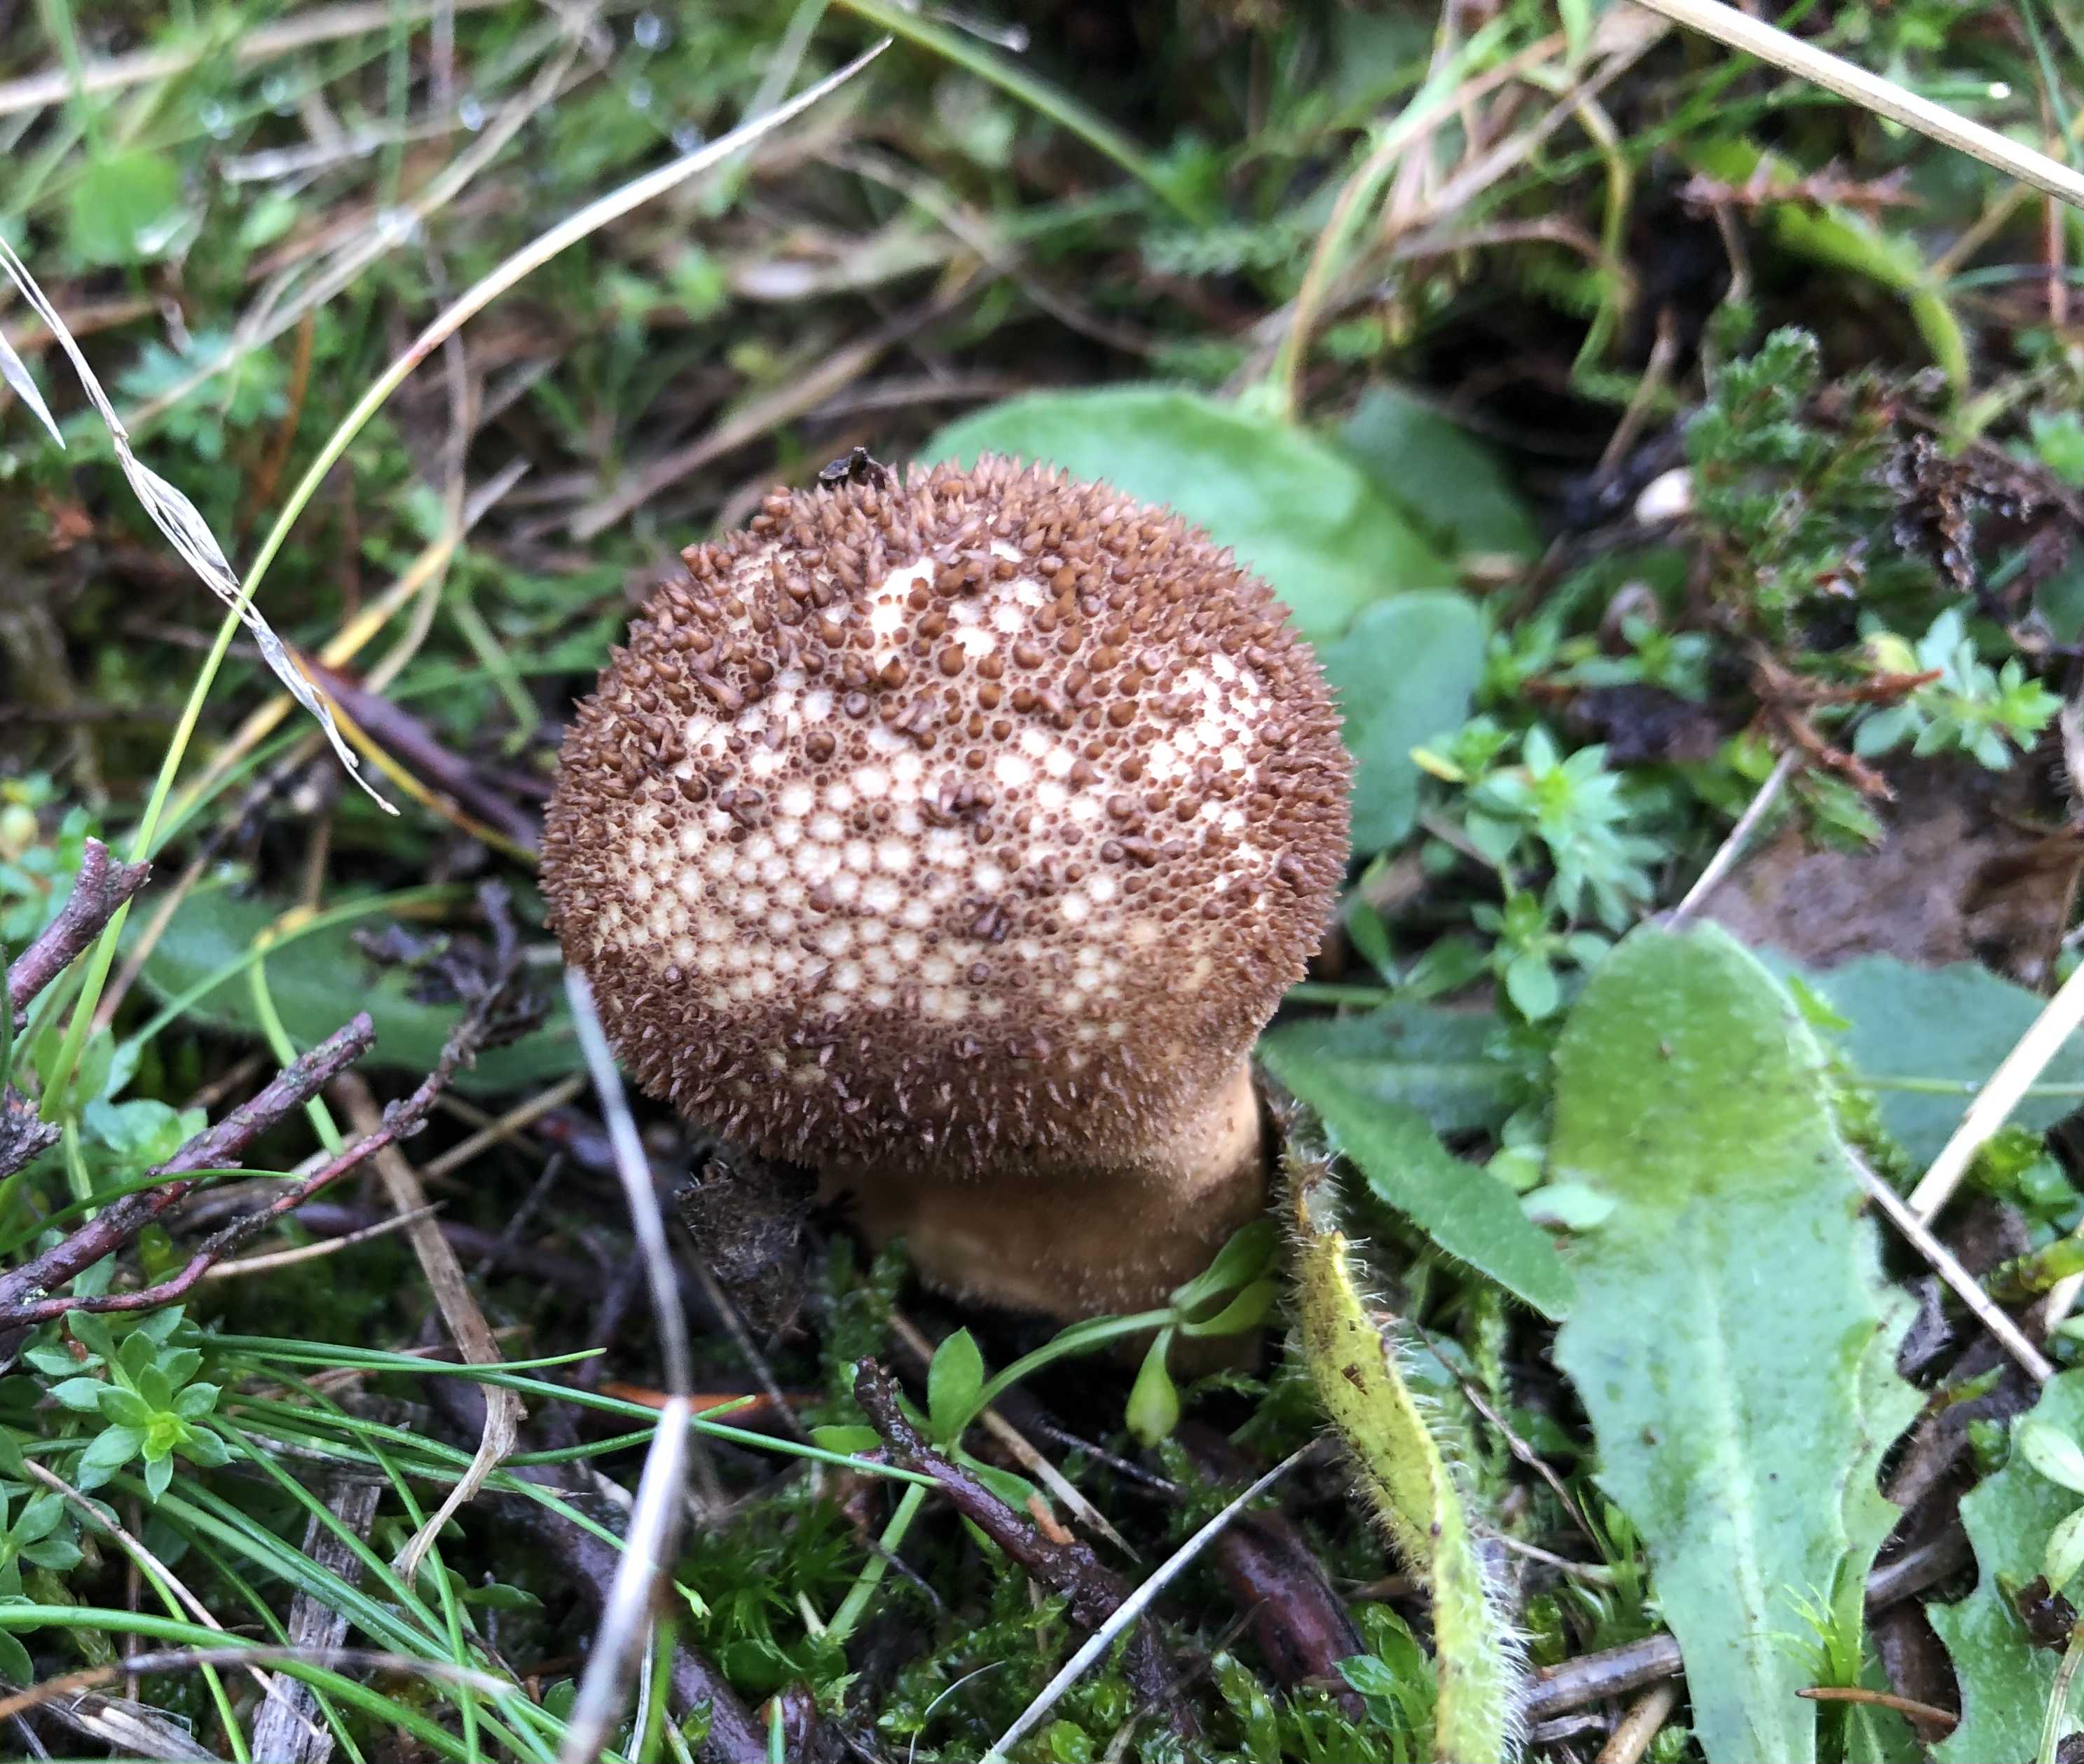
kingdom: Fungi
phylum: Basidiomycota
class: Agaricomycetes
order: Agaricales
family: Lycoperdaceae
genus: Lycoperdon
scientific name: Lycoperdon nigrescens
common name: sortagtig støvbold
